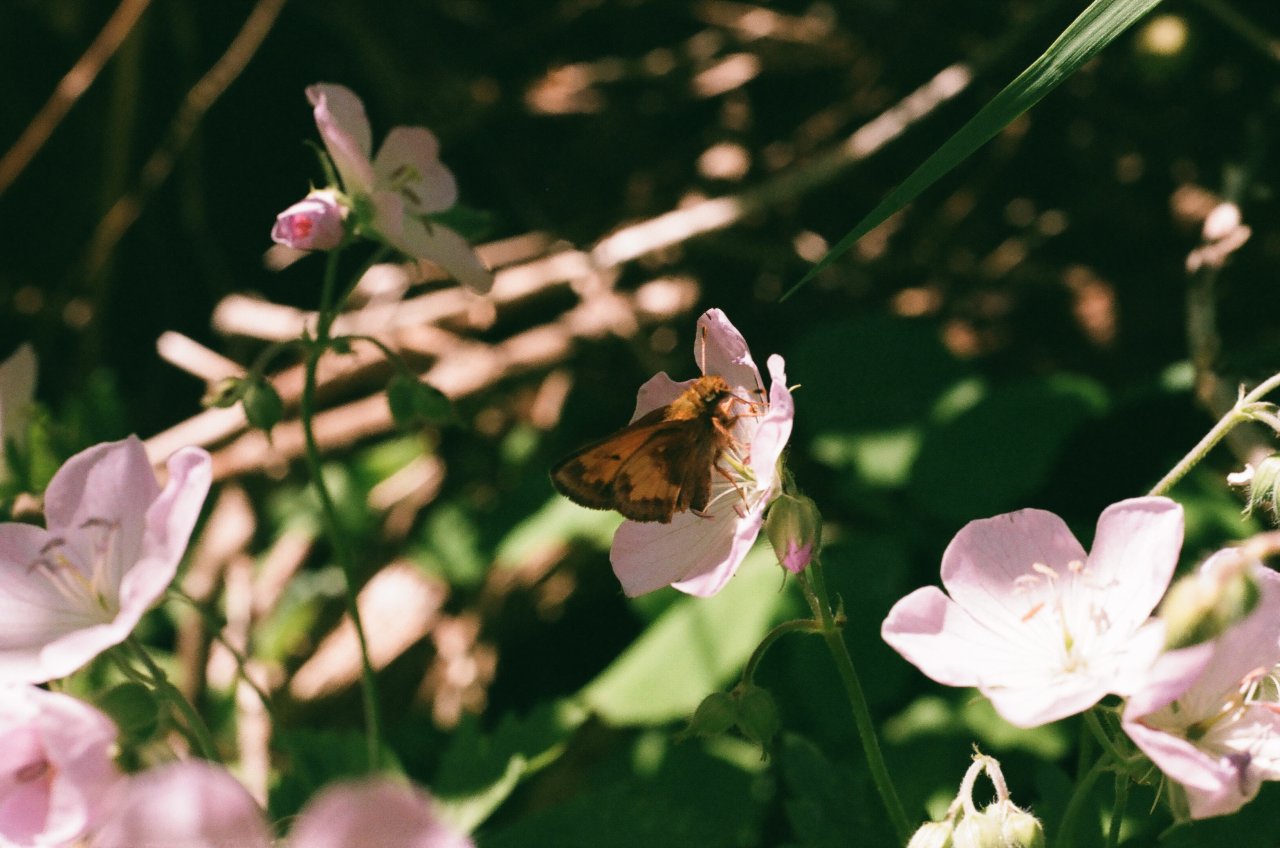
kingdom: Animalia
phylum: Arthropoda
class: Insecta
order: Lepidoptera
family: Hesperiidae
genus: Lon
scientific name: Lon hobomok
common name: Hobomok Skipper
